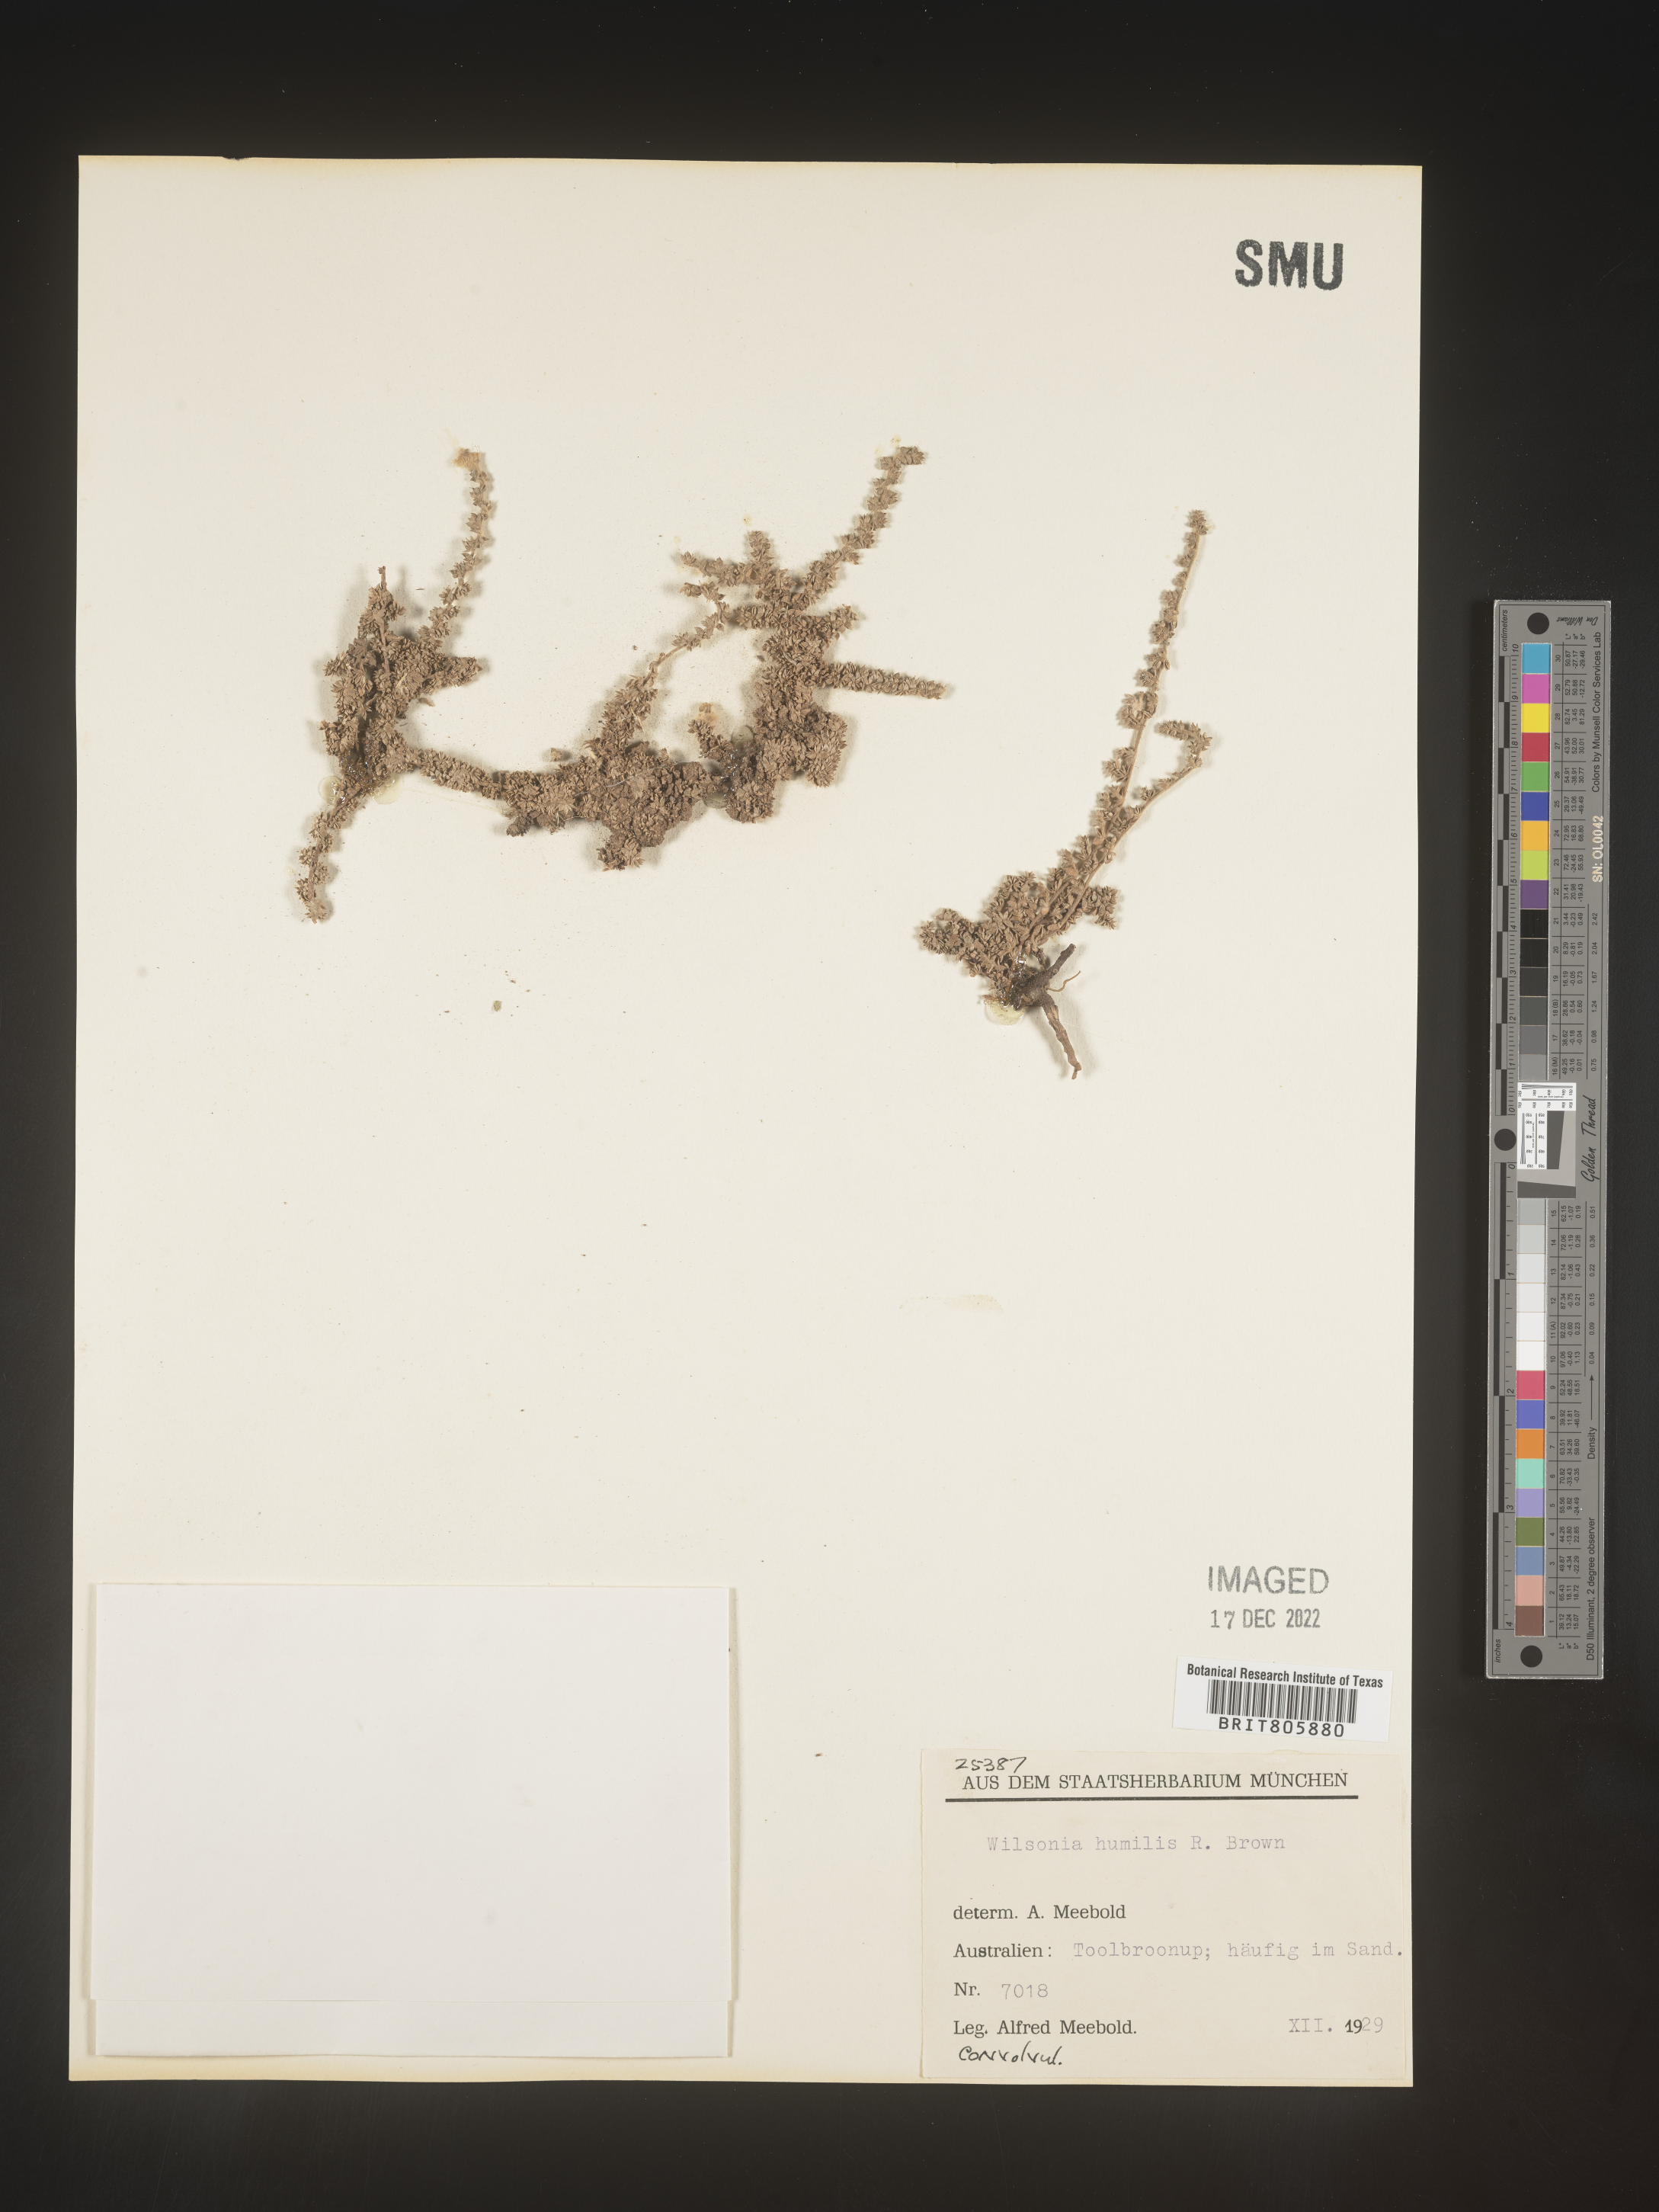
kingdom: Plantae
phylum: Tracheophyta
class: Magnoliopsida
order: Solanales
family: Convolvulaceae
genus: Wilsonia
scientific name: Wilsonia
